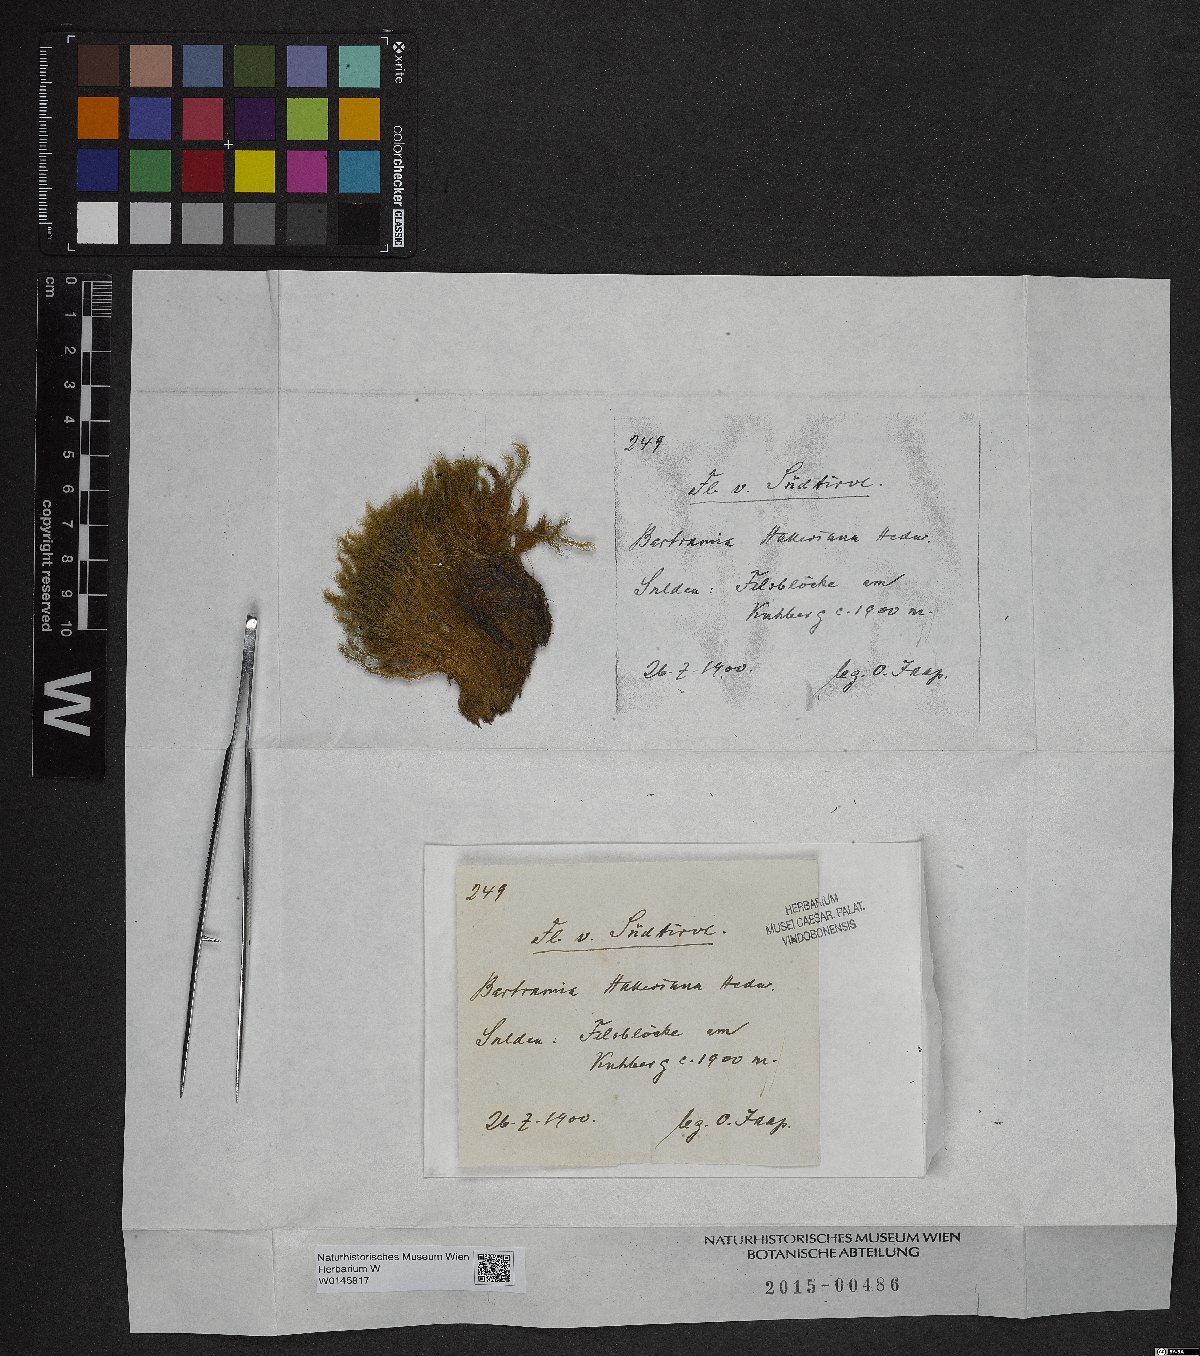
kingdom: Plantae
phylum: Bryophyta
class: Bryopsida
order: Bartramiales
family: Bartramiaceae
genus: Bartramia
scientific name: Bartramia halleriana
